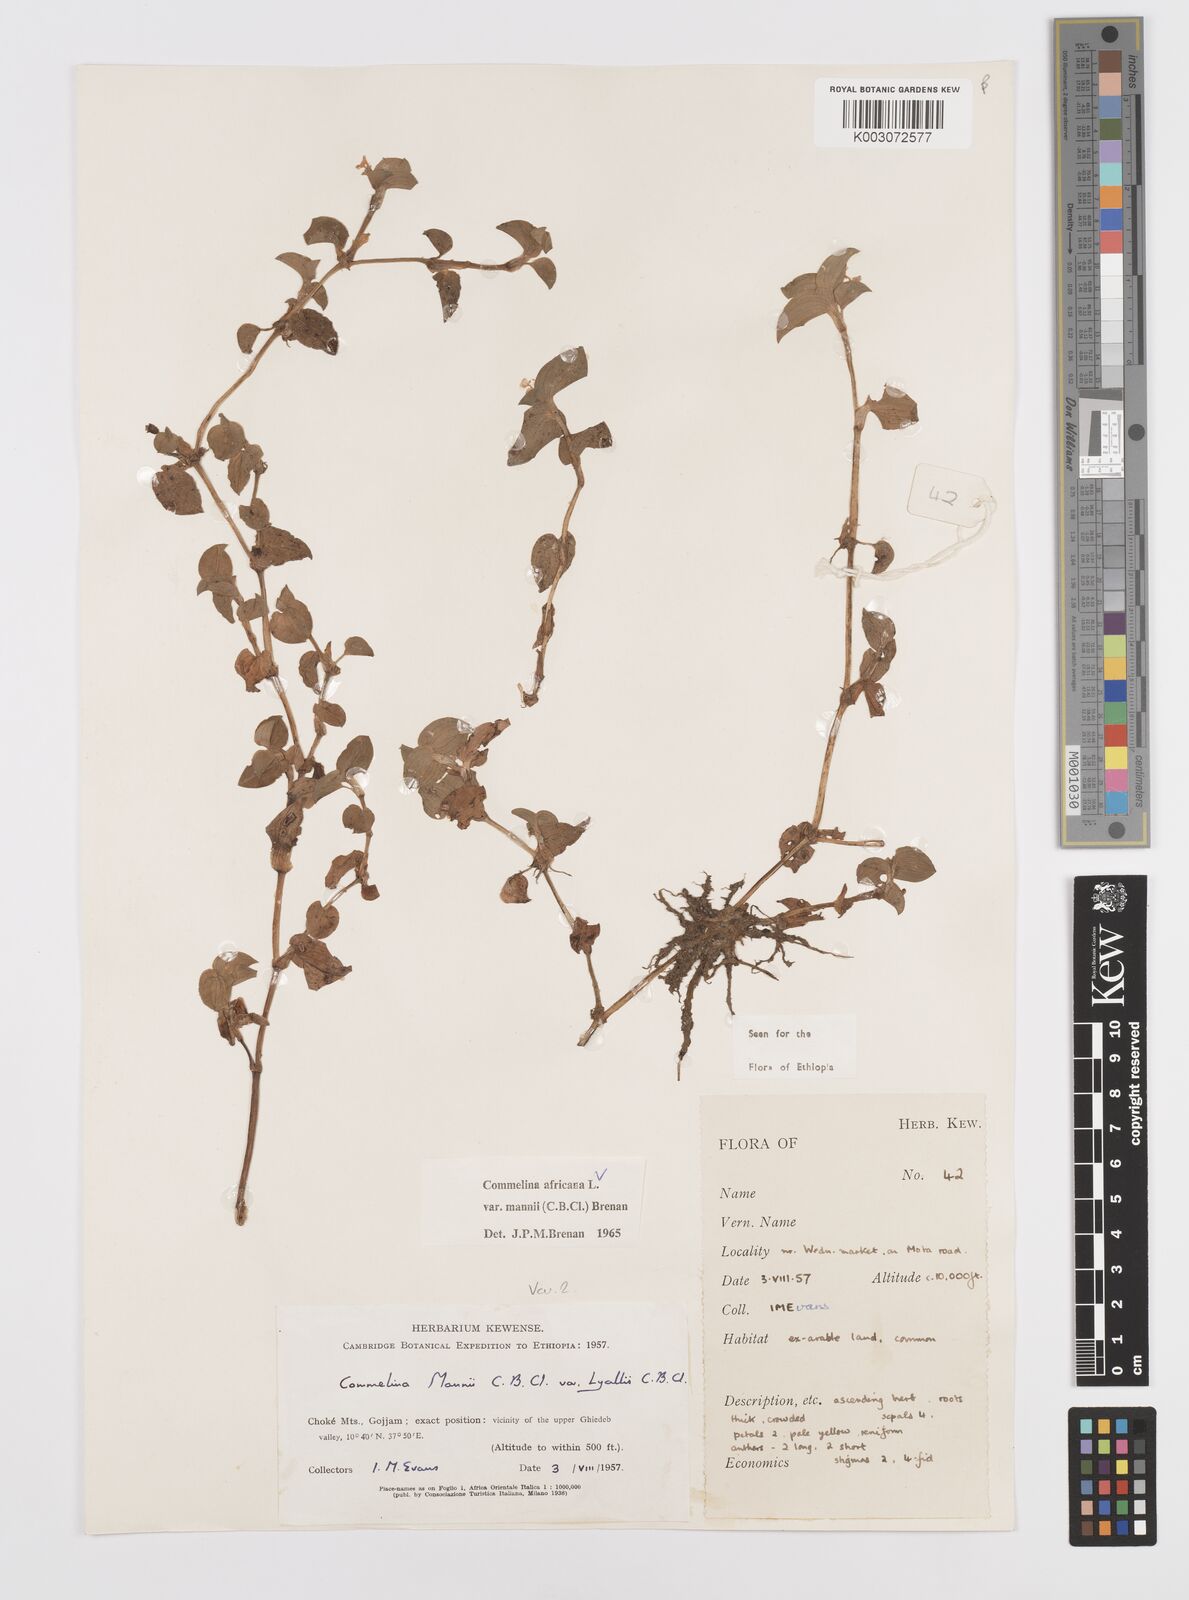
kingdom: Plantae
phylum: Tracheophyta
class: Liliopsida
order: Commelinales
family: Commelinaceae
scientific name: Commelinaceae
